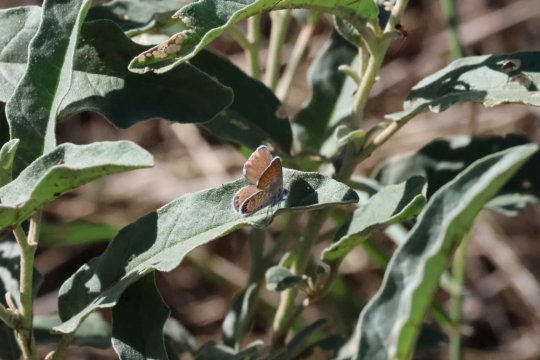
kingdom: Animalia
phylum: Arthropoda
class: Insecta
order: Lepidoptera
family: Lycaenidae
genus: Brephidium
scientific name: Brephidium exilis
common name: Western Pygmy-Blue
